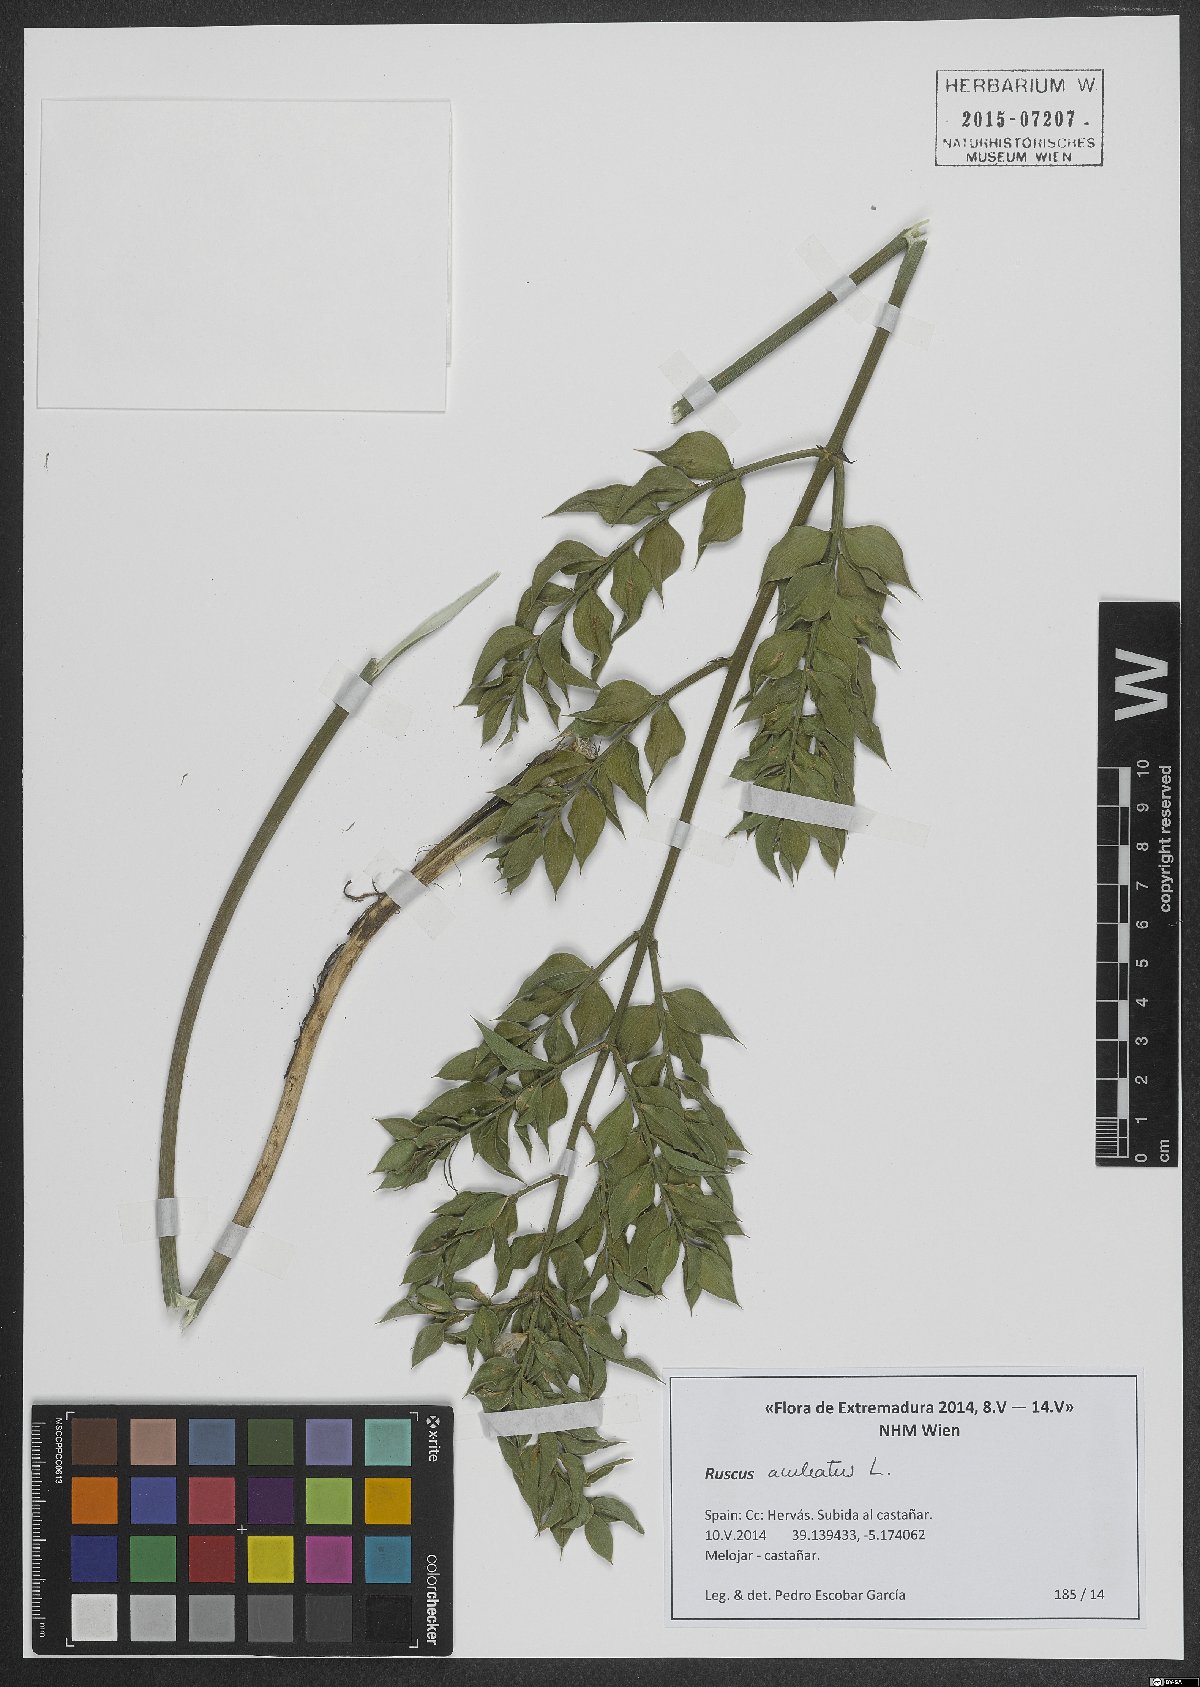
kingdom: Plantae
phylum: Tracheophyta
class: Liliopsida
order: Asparagales
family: Asparagaceae
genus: Ruscus
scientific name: Ruscus aculeatus
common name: Butcher's-broom
